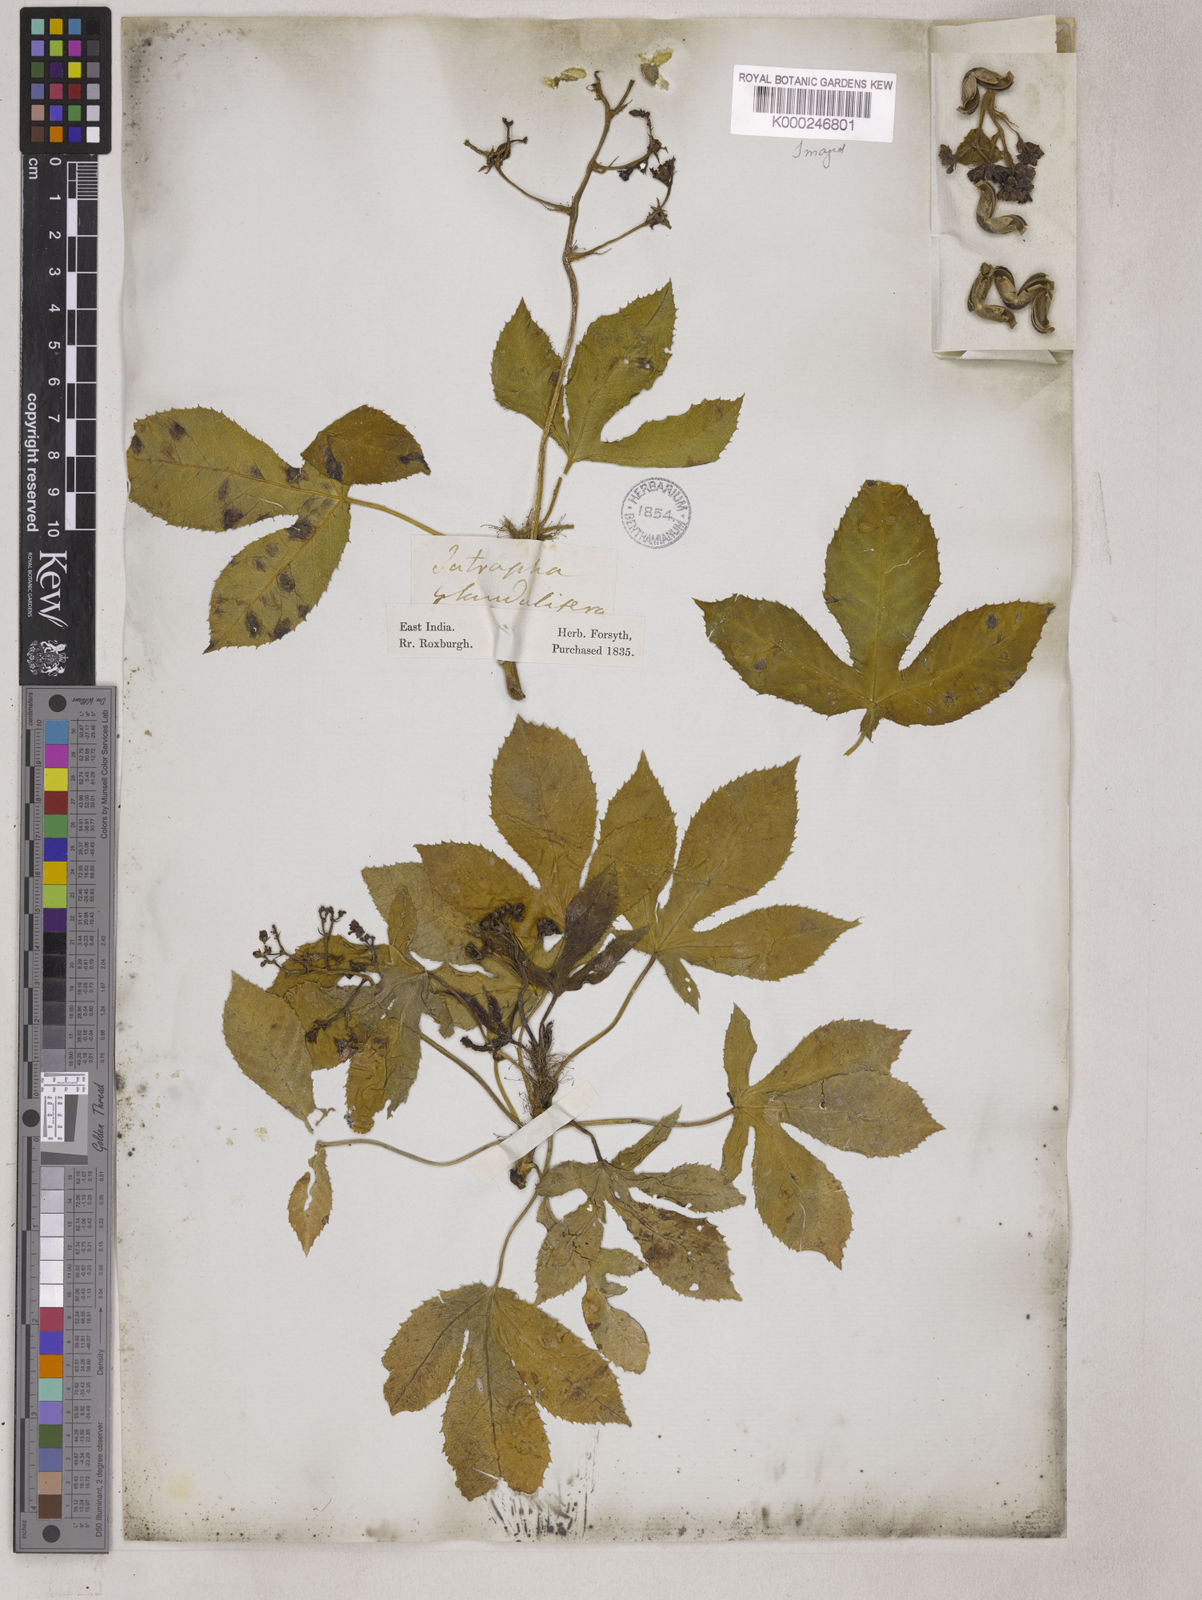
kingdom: Plantae
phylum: Tracheophyta
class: Magnoliopsida
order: Malpighiales
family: Euphorbiaceae
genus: Jatropha
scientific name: Jatropha glandulifera
